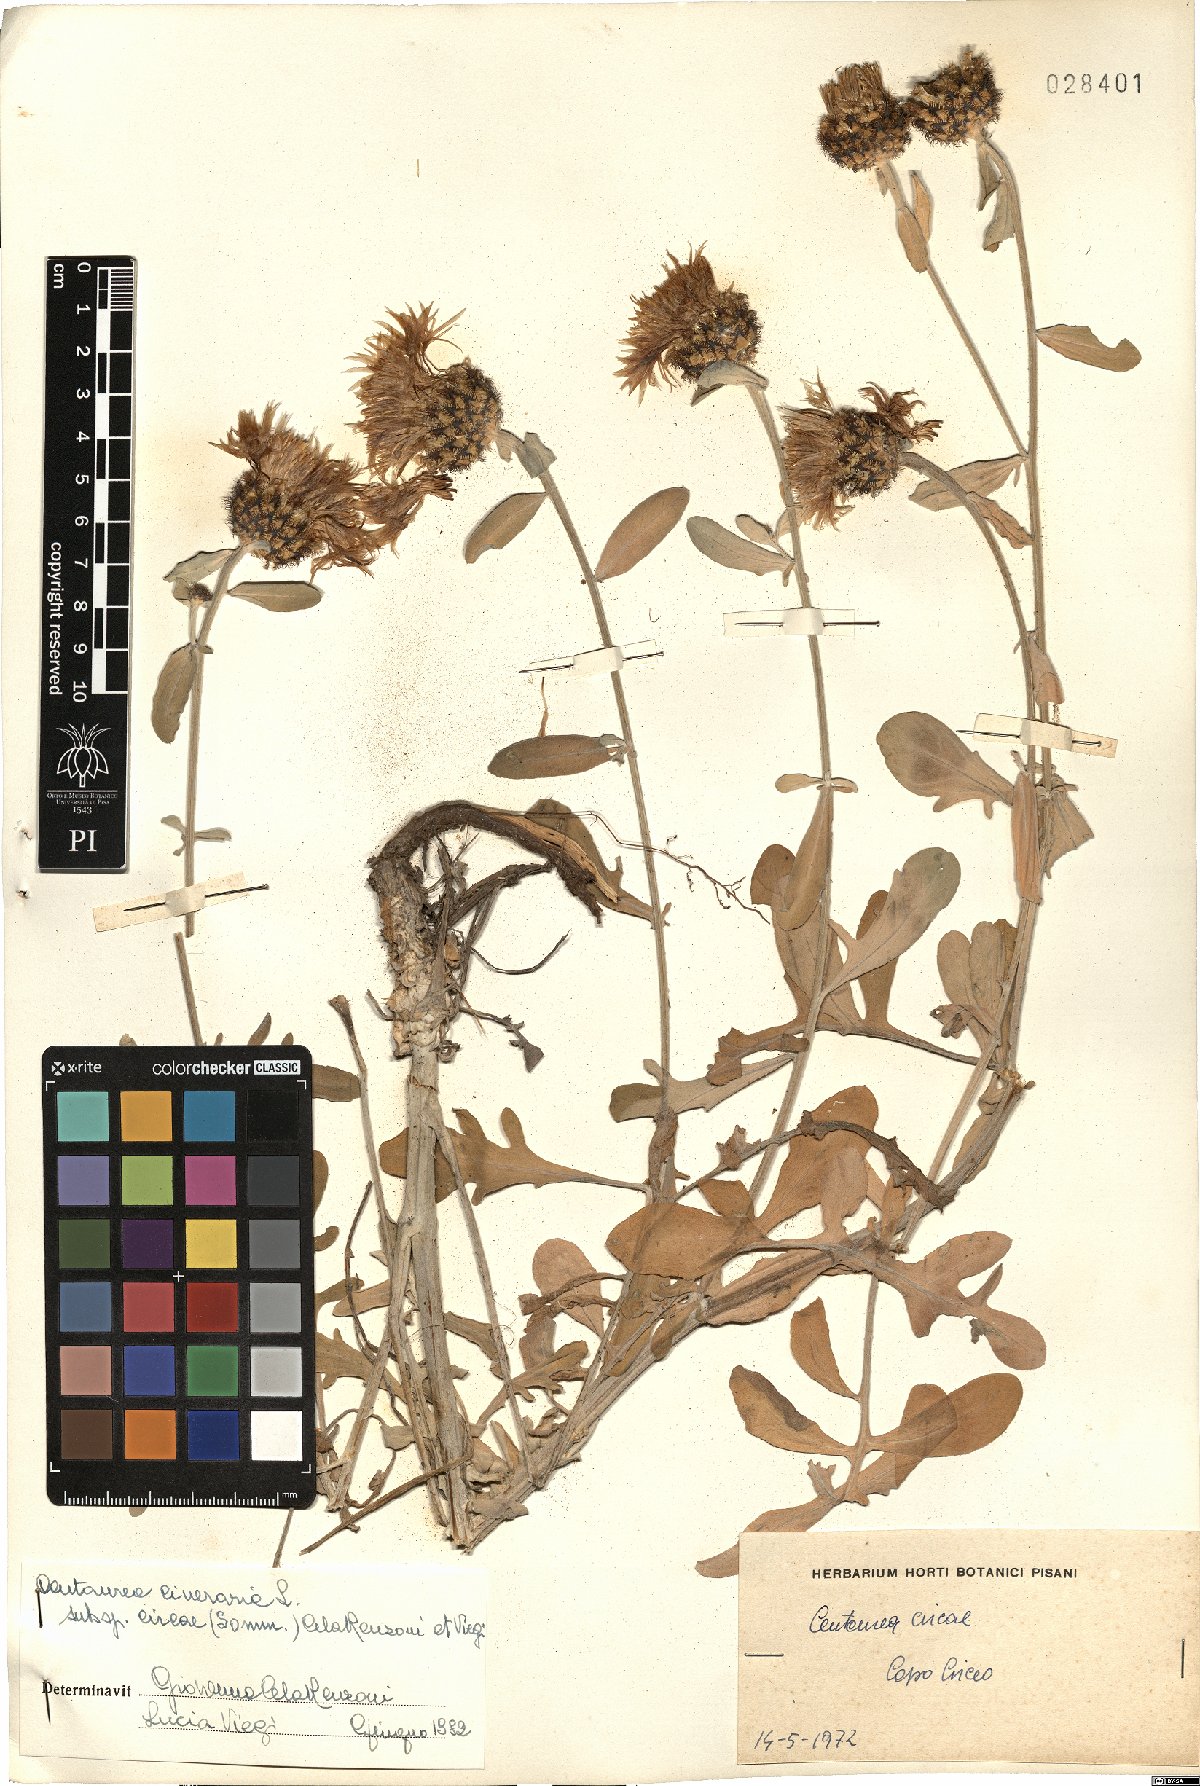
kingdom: Plantae
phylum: Tracheophyta
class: Magnoliopsida
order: Asterales
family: Asteraceae
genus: Centaurea
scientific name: Centaurea cineraria
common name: Dusty miller
